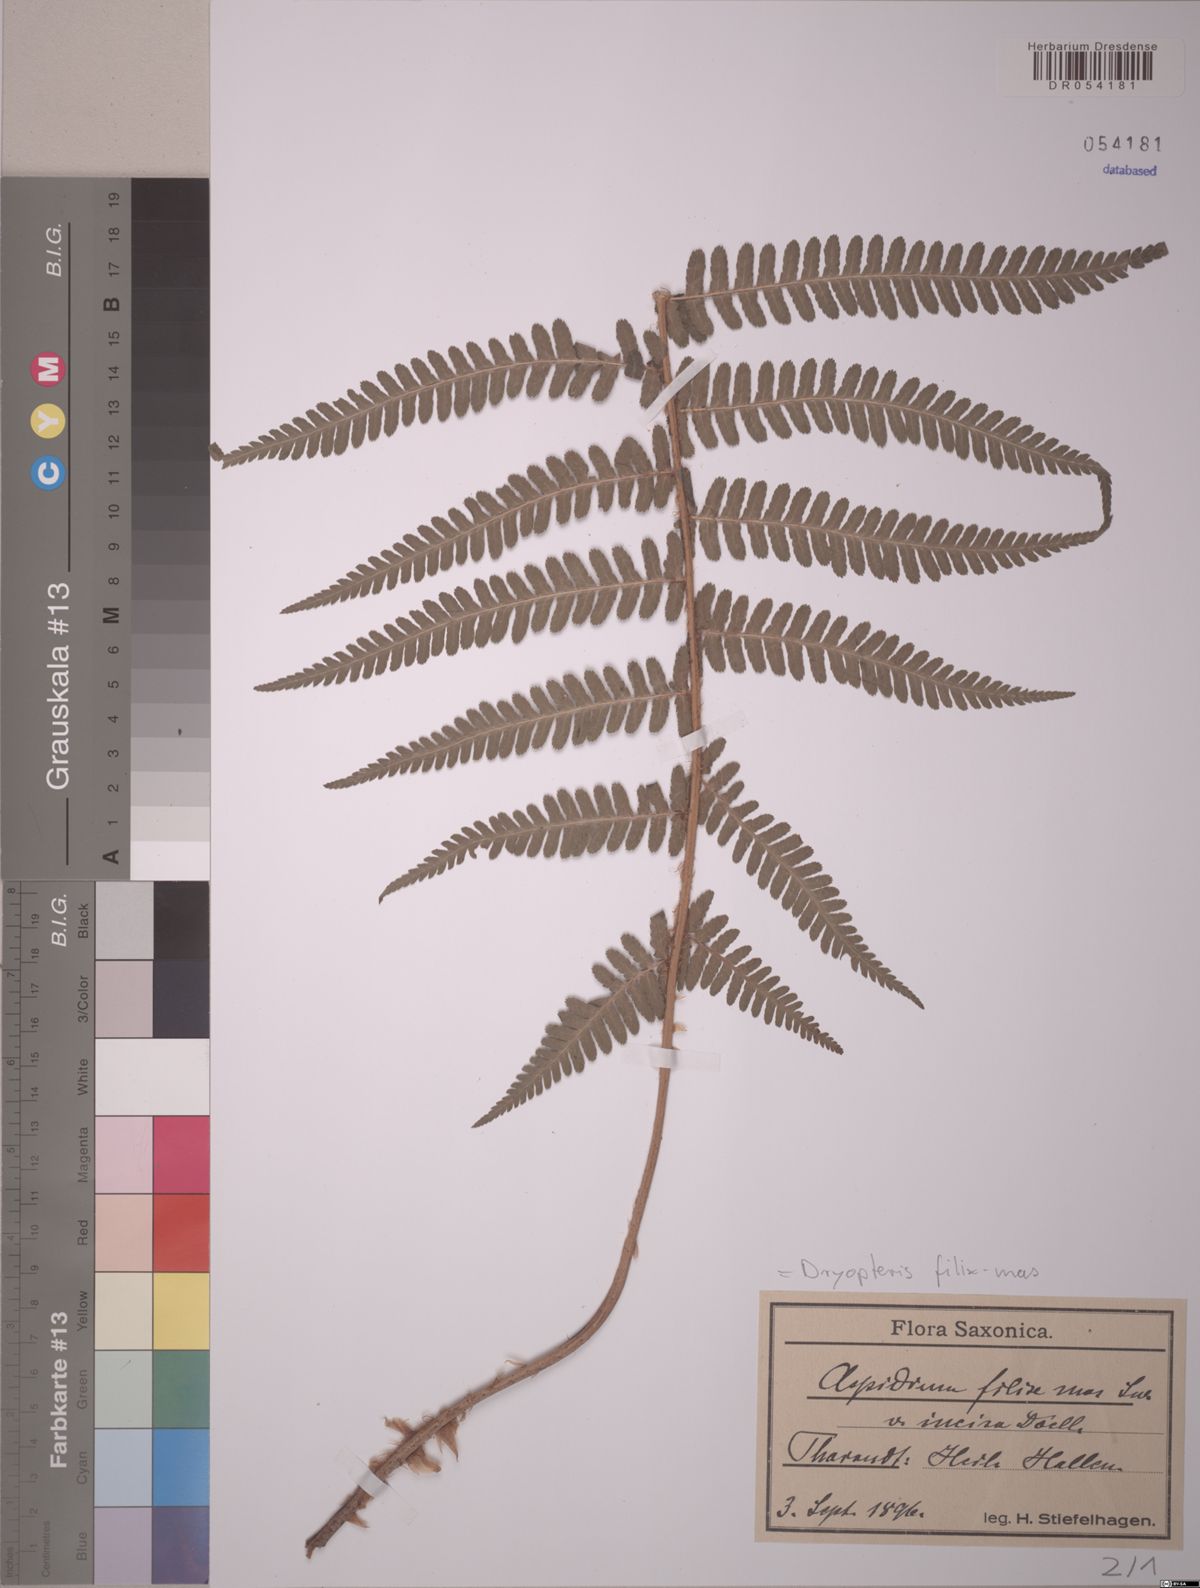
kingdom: Plantae
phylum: Tracheophyta
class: Polypodiopsida
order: Polypodiales
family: Dryopteridaceae
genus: Dryopteris
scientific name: Dryopteris filix-mas
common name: Male fern
